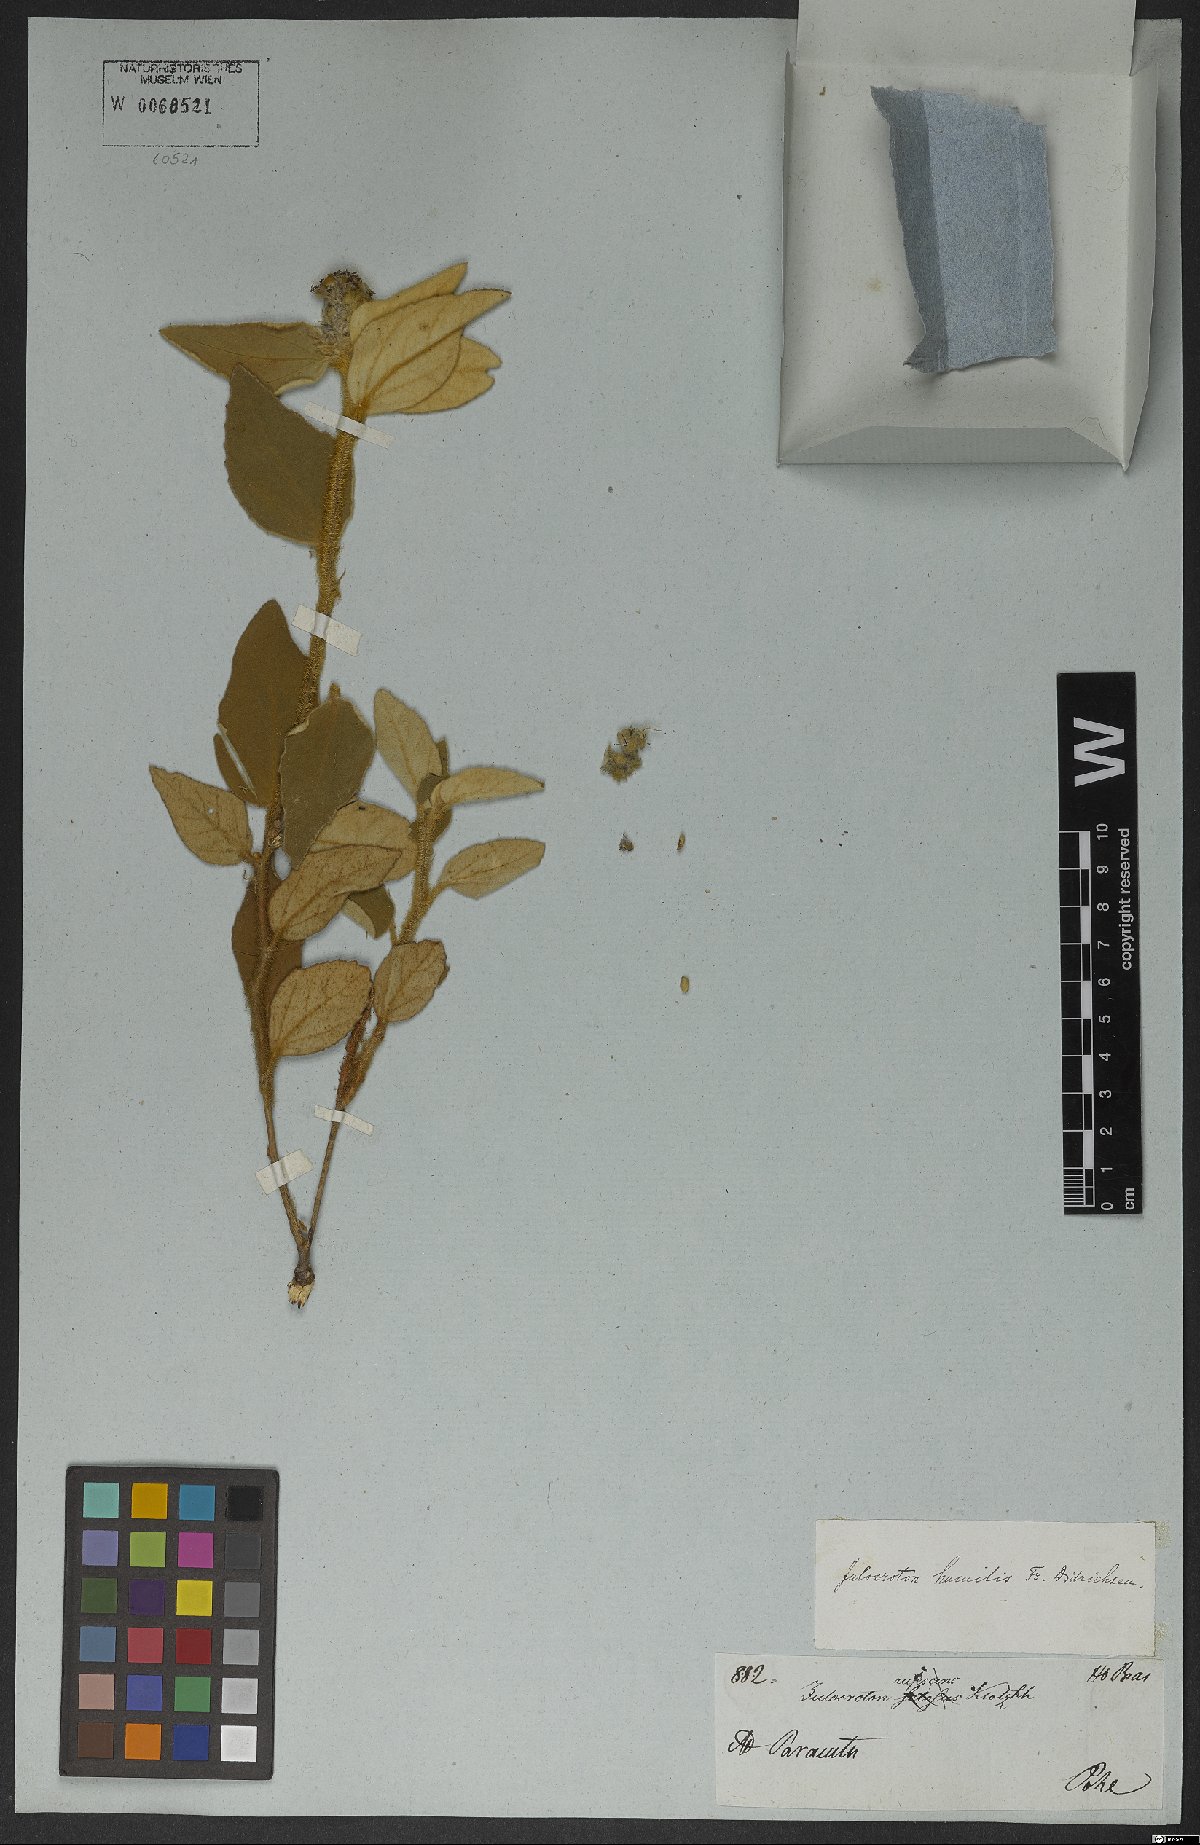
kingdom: Plantae
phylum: Tracheophyta
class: Magnoliopsida
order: Malpighiales
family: Euphorbiaceae
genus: Croton
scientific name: Croton solanaceus
